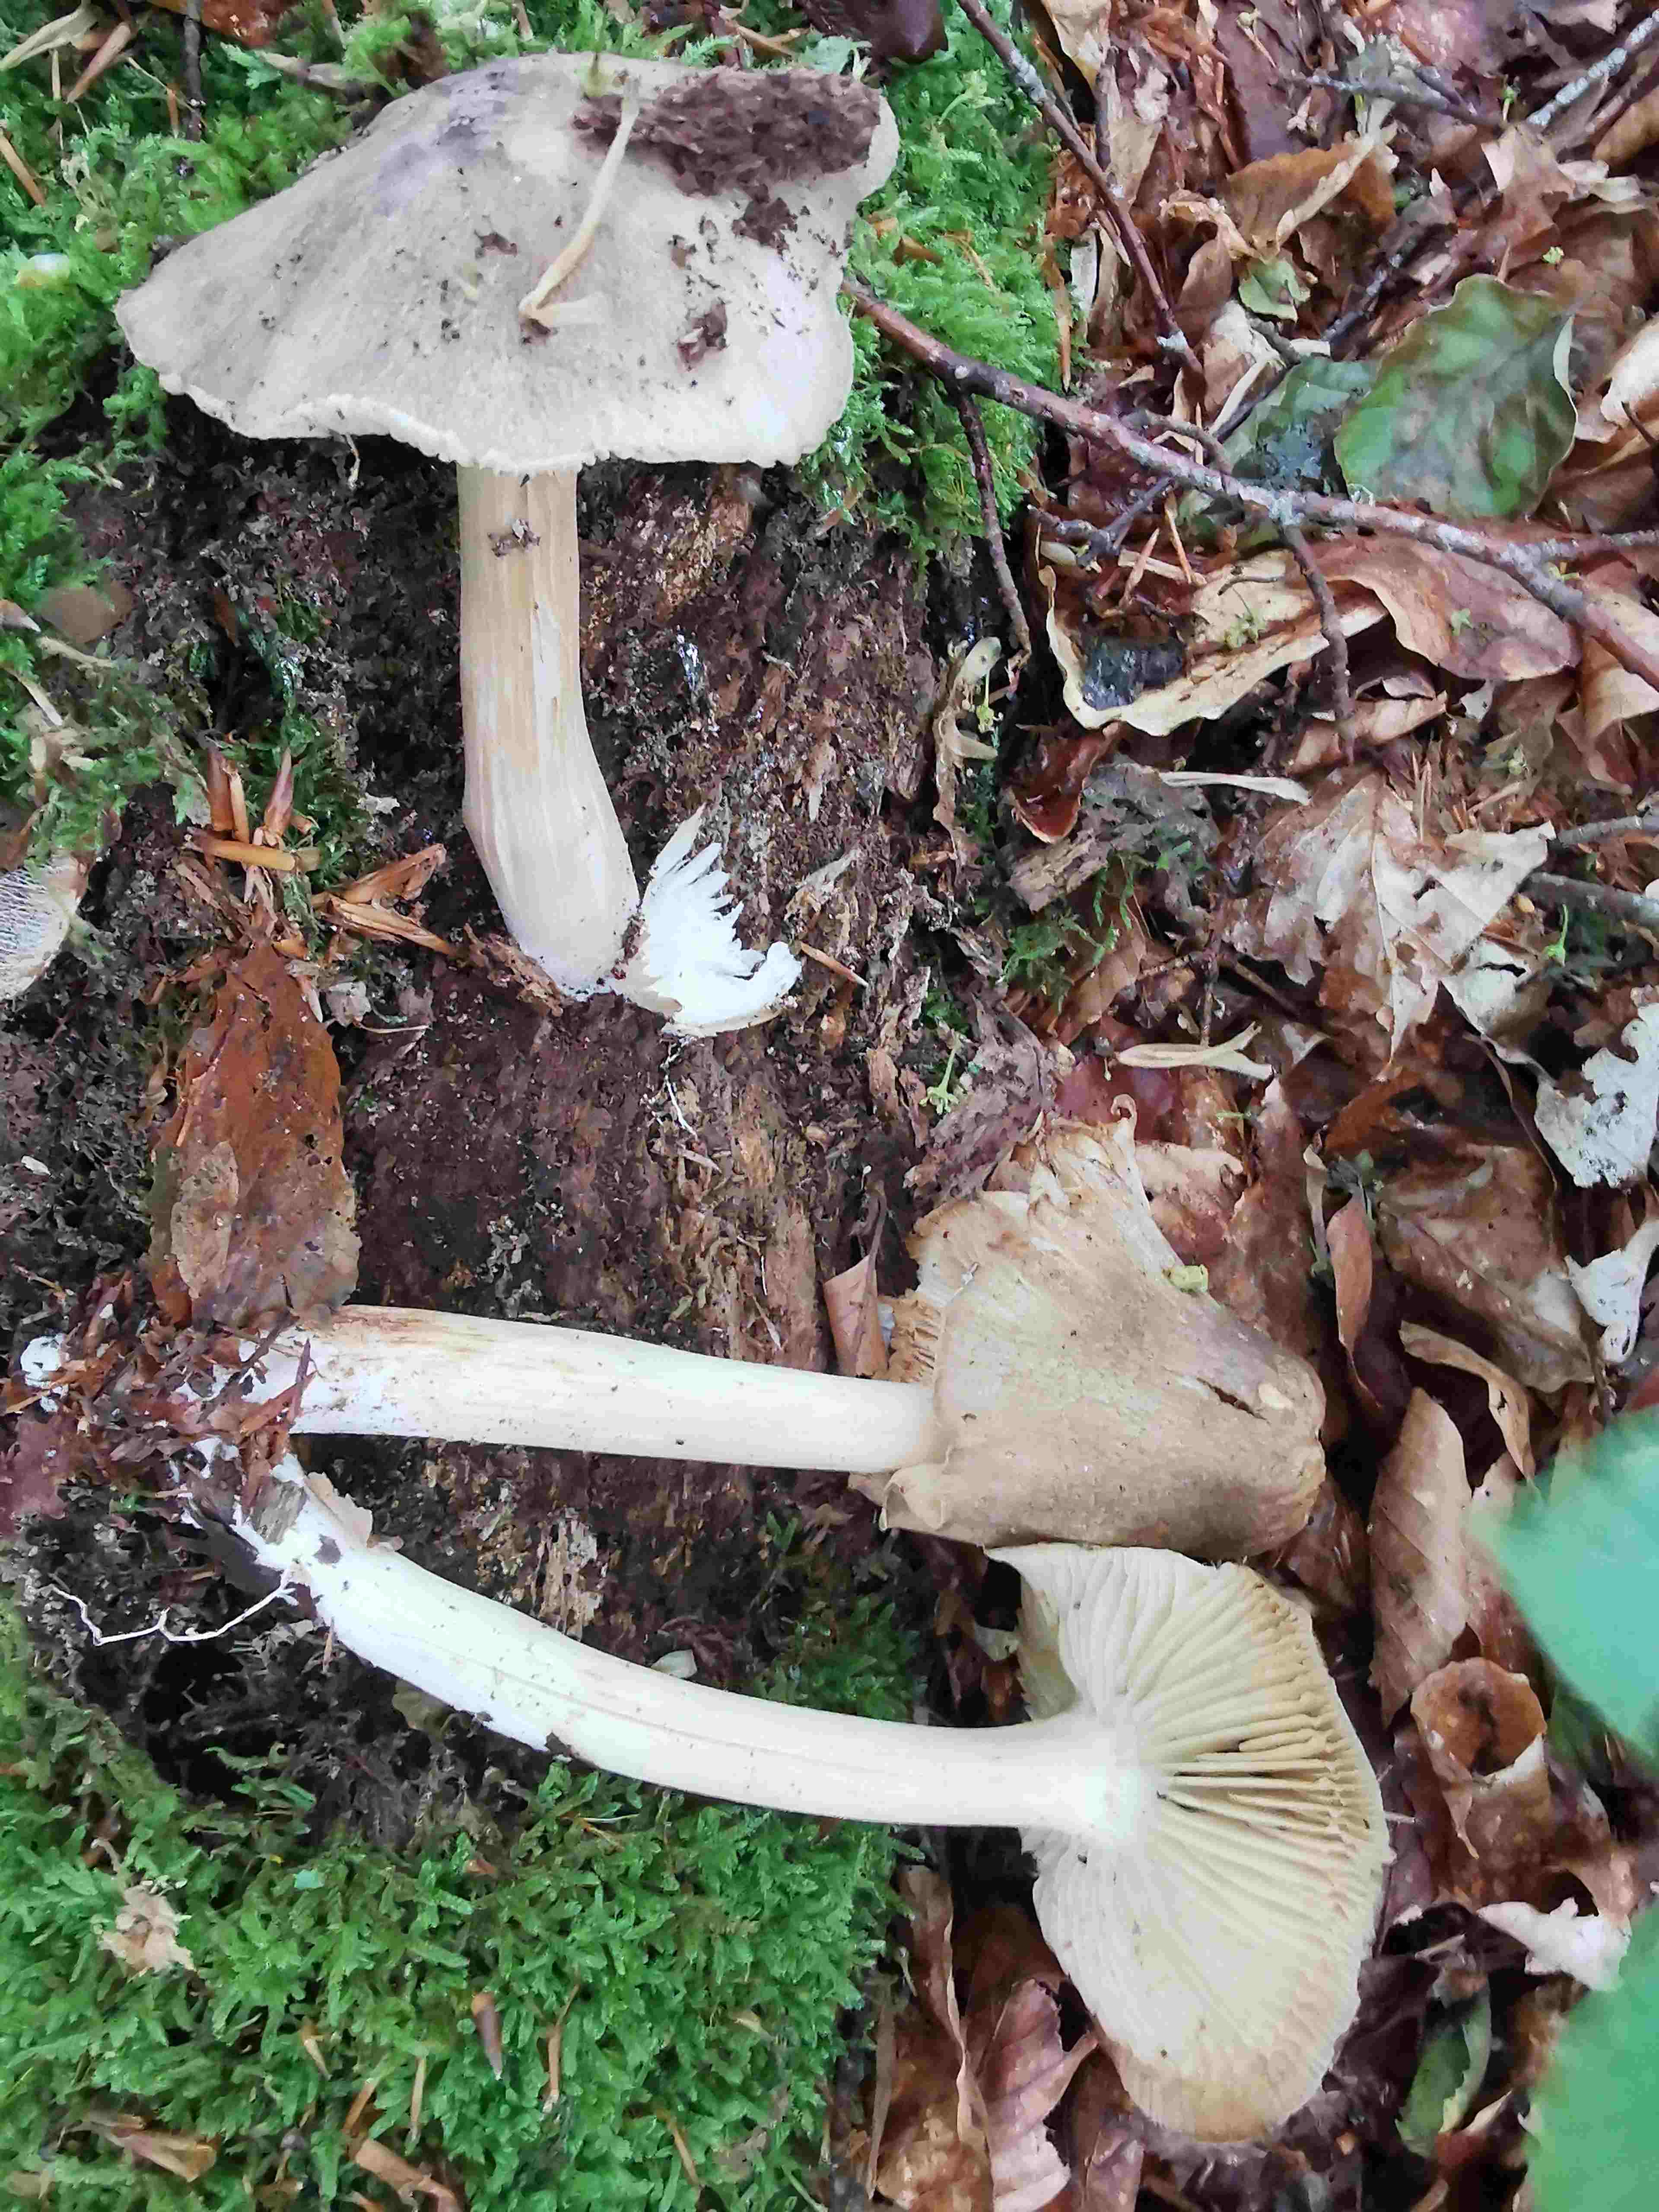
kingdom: Fungi
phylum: Basidiomycota
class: Agaricomycetes
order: Agaricales
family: Tricholomataceae
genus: Megacollybia
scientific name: Megacollybia platyphylla
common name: bredbladet væbnerhat
